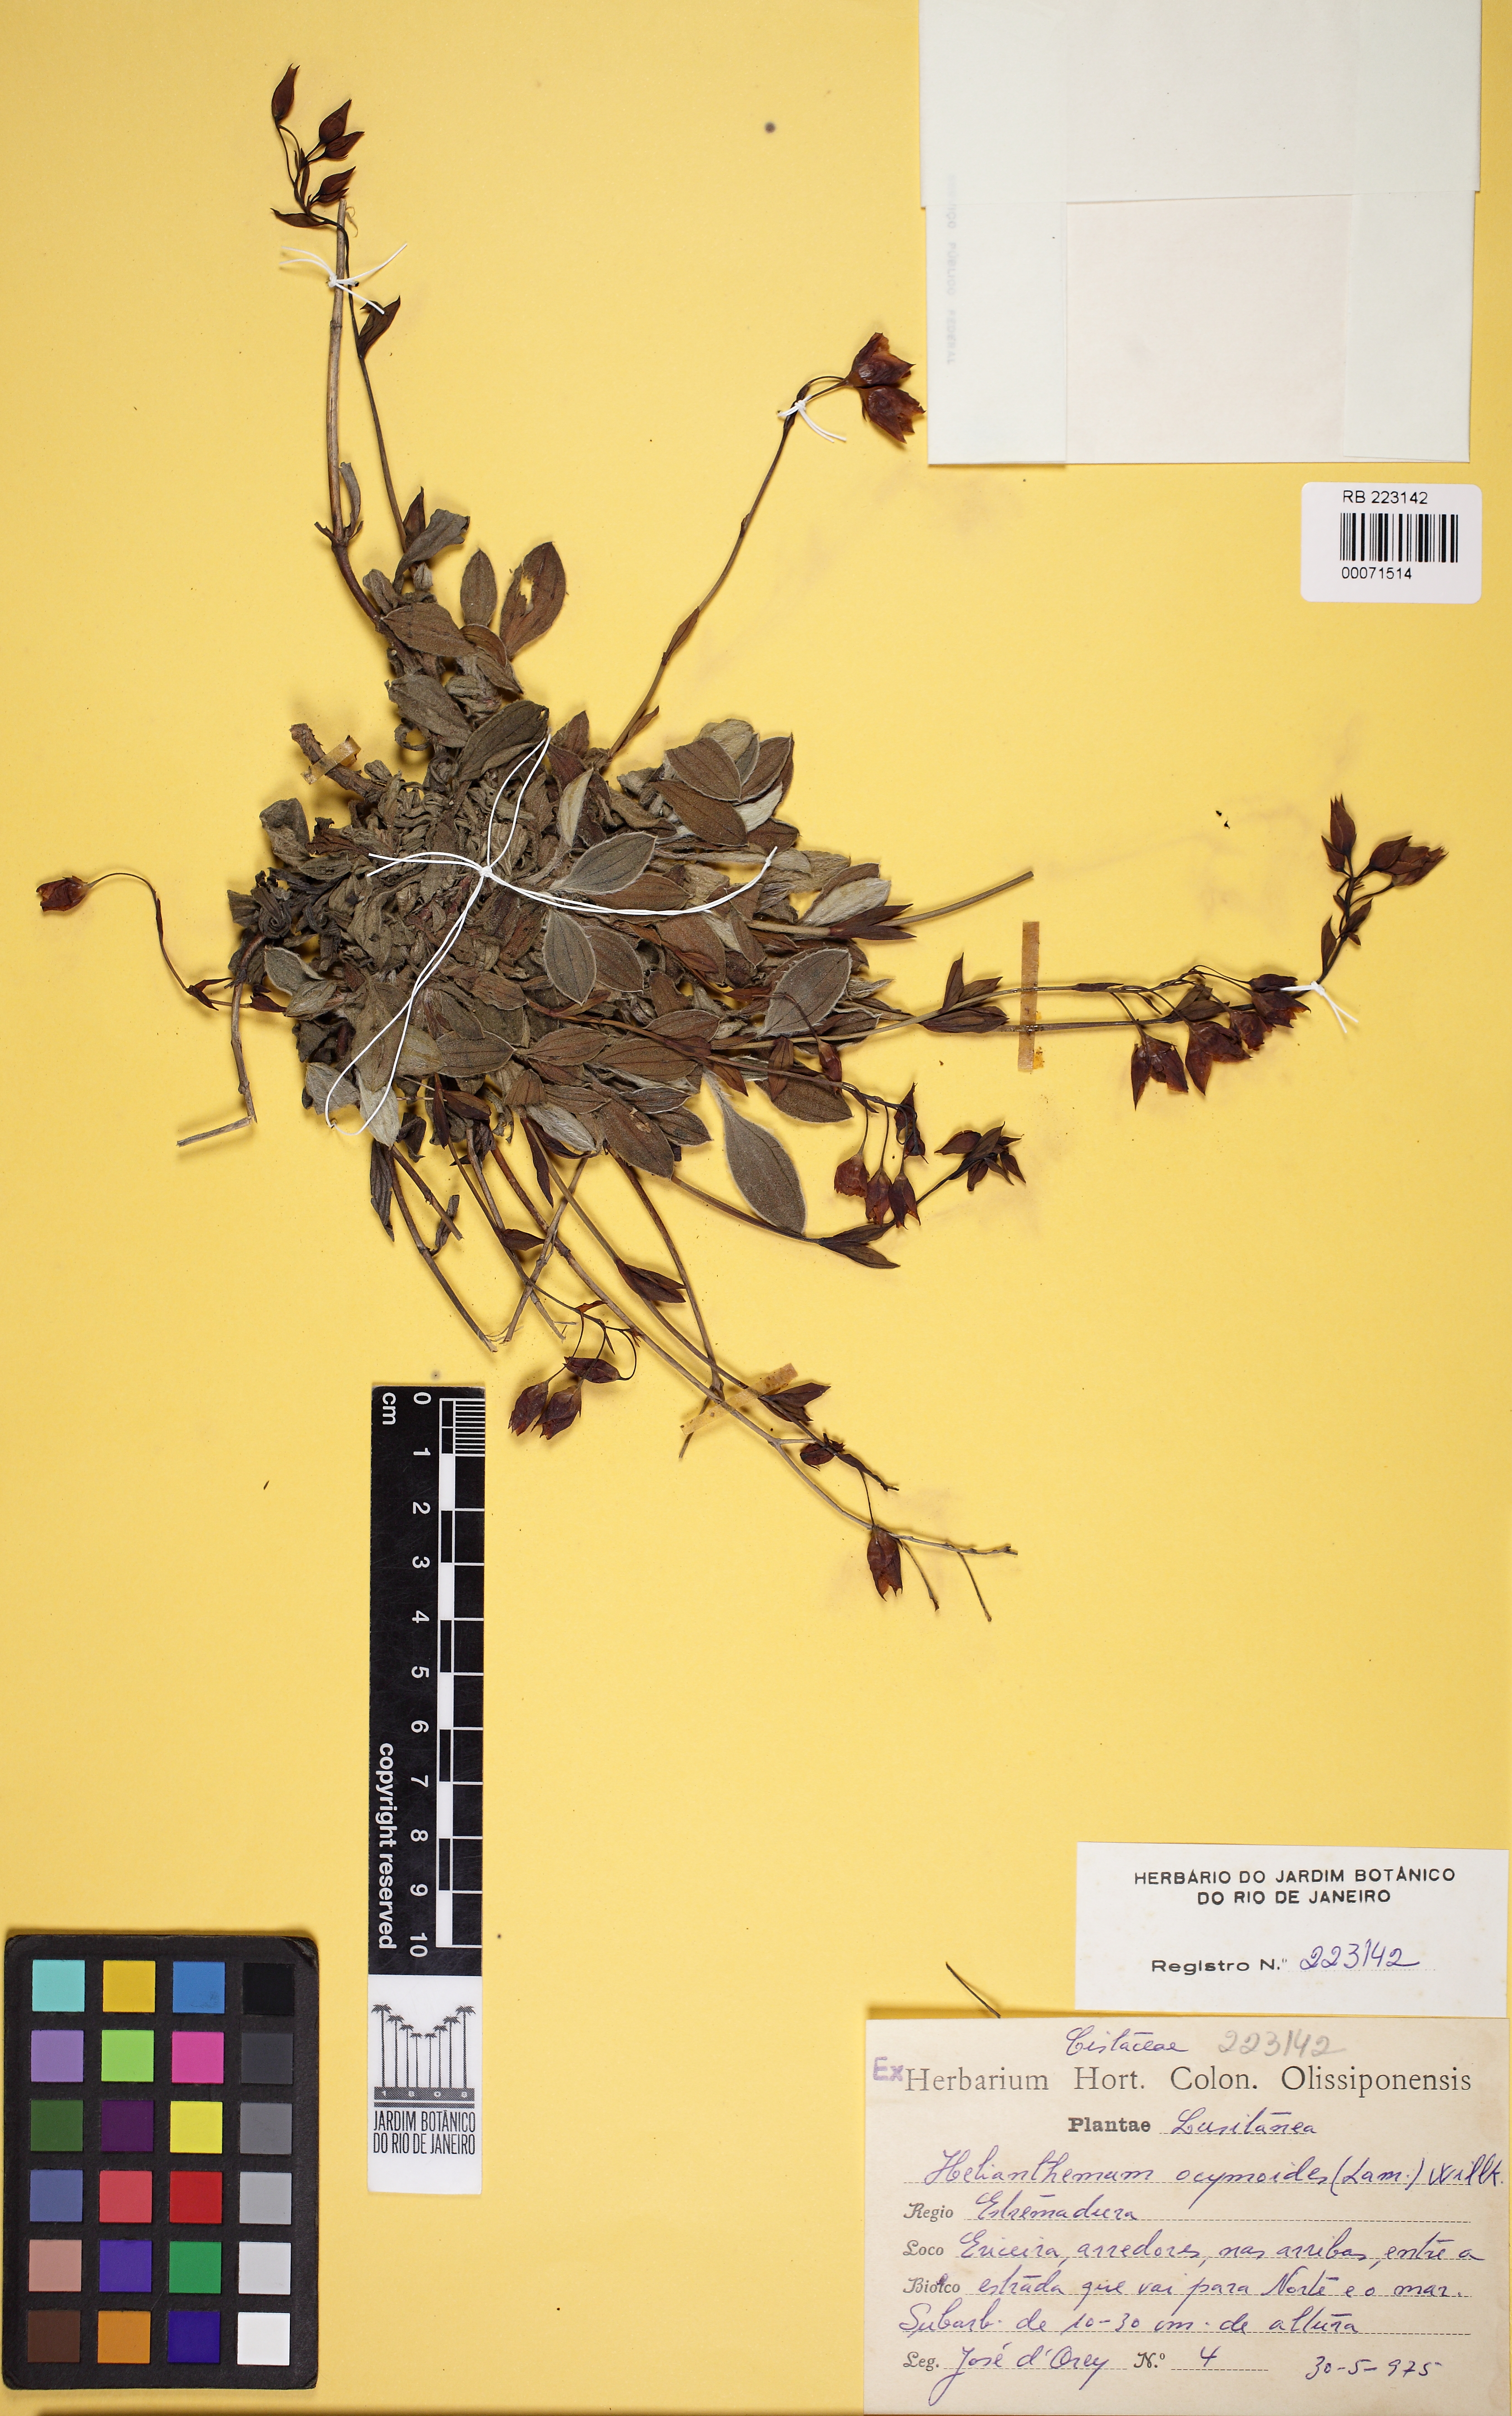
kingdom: Plantae
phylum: Tracheophyta
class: Magnoliopsida
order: Malvales
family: Cistaceae
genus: Halimium
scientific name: Halimium ocymoides
